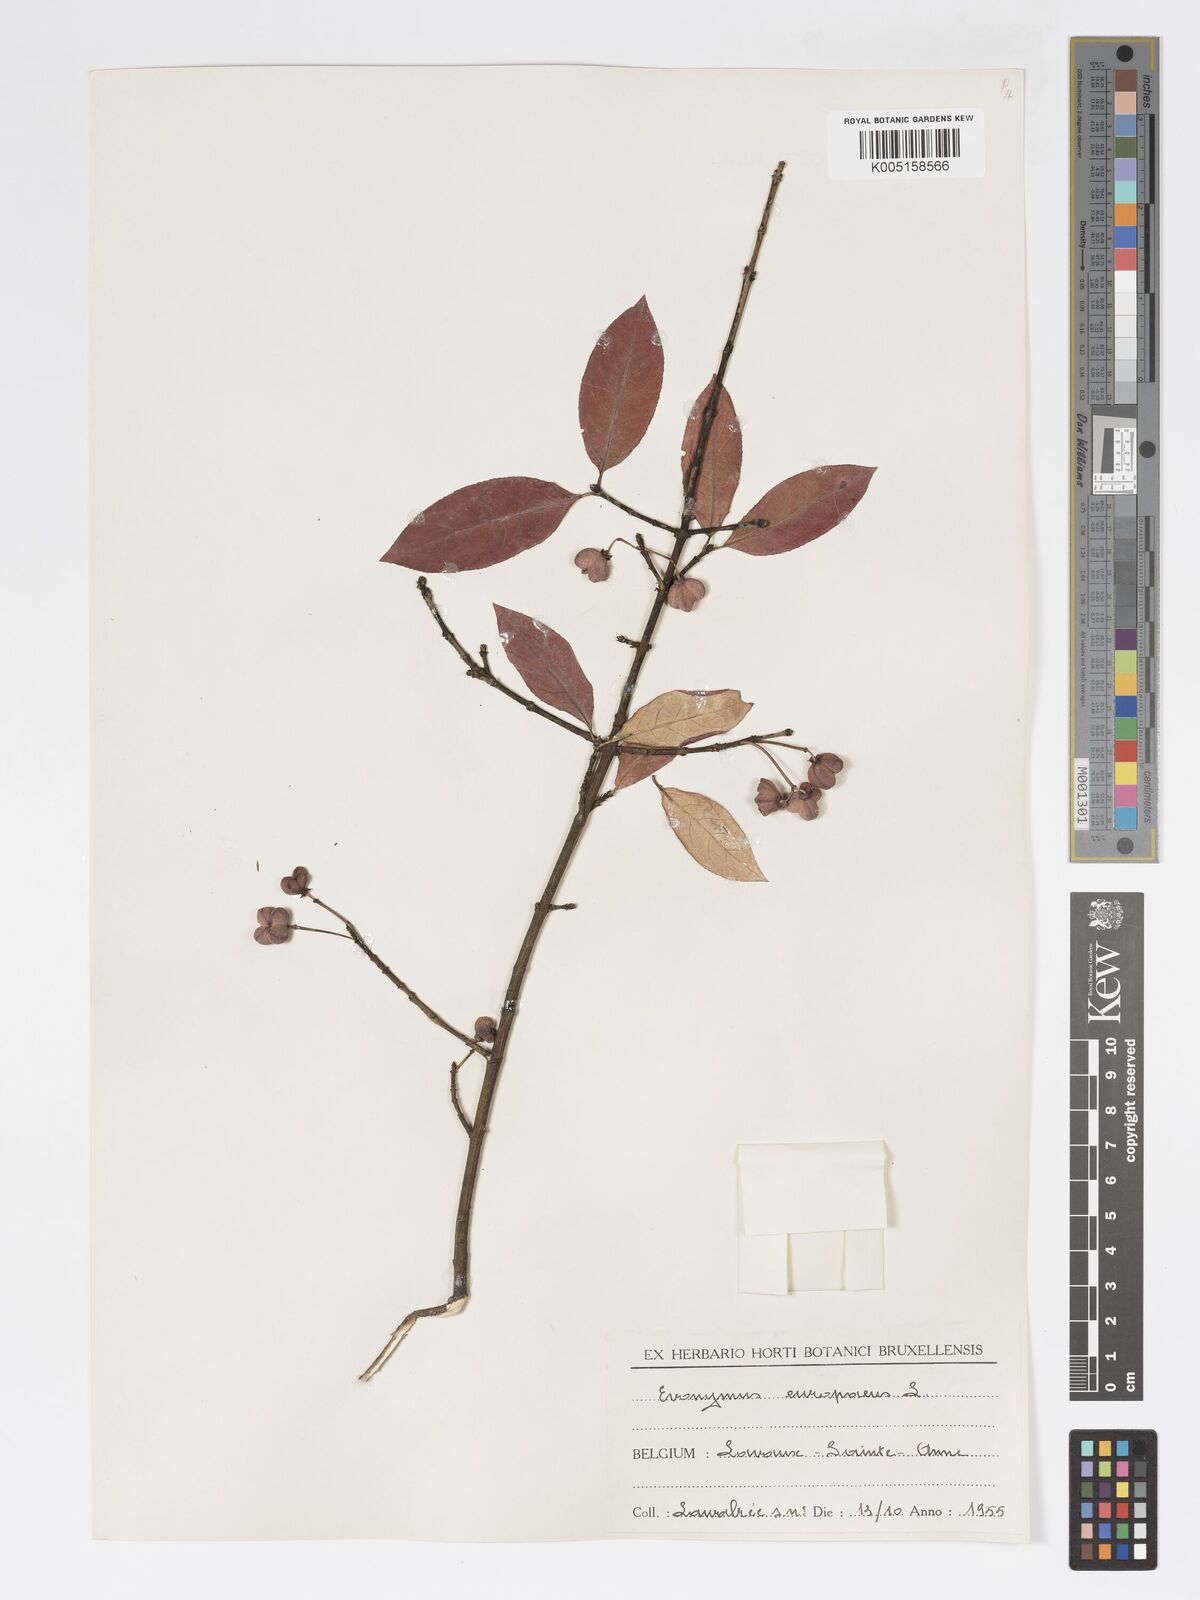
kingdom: Plantae
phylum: Tracheophyta
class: Magnoliopsida
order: Celastrales
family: Celastraceae
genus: Euonymus
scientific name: Euonymus europaeus
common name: Spindle
